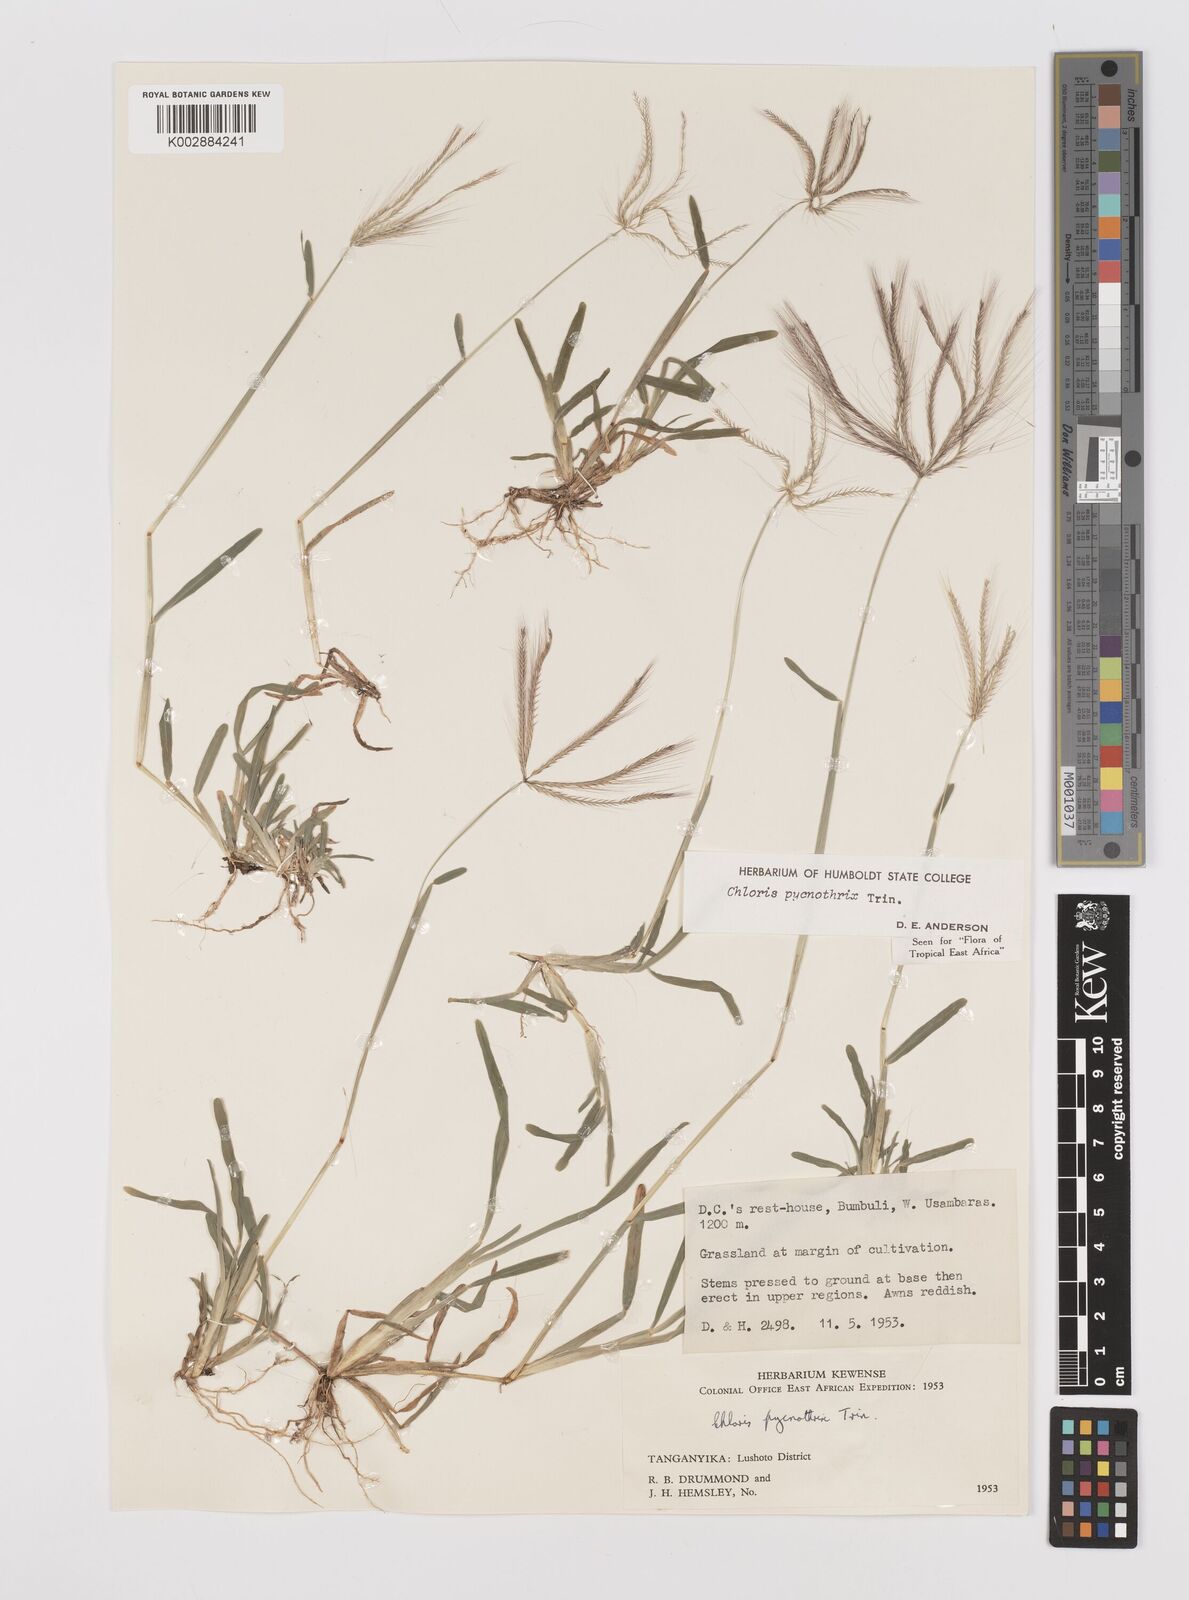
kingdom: Plantae
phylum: Tracheophyta
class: Liliopsida
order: Poales
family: Poaceae
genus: Chloris
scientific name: Chloris pycnothrix
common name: Spiderweb chloris
